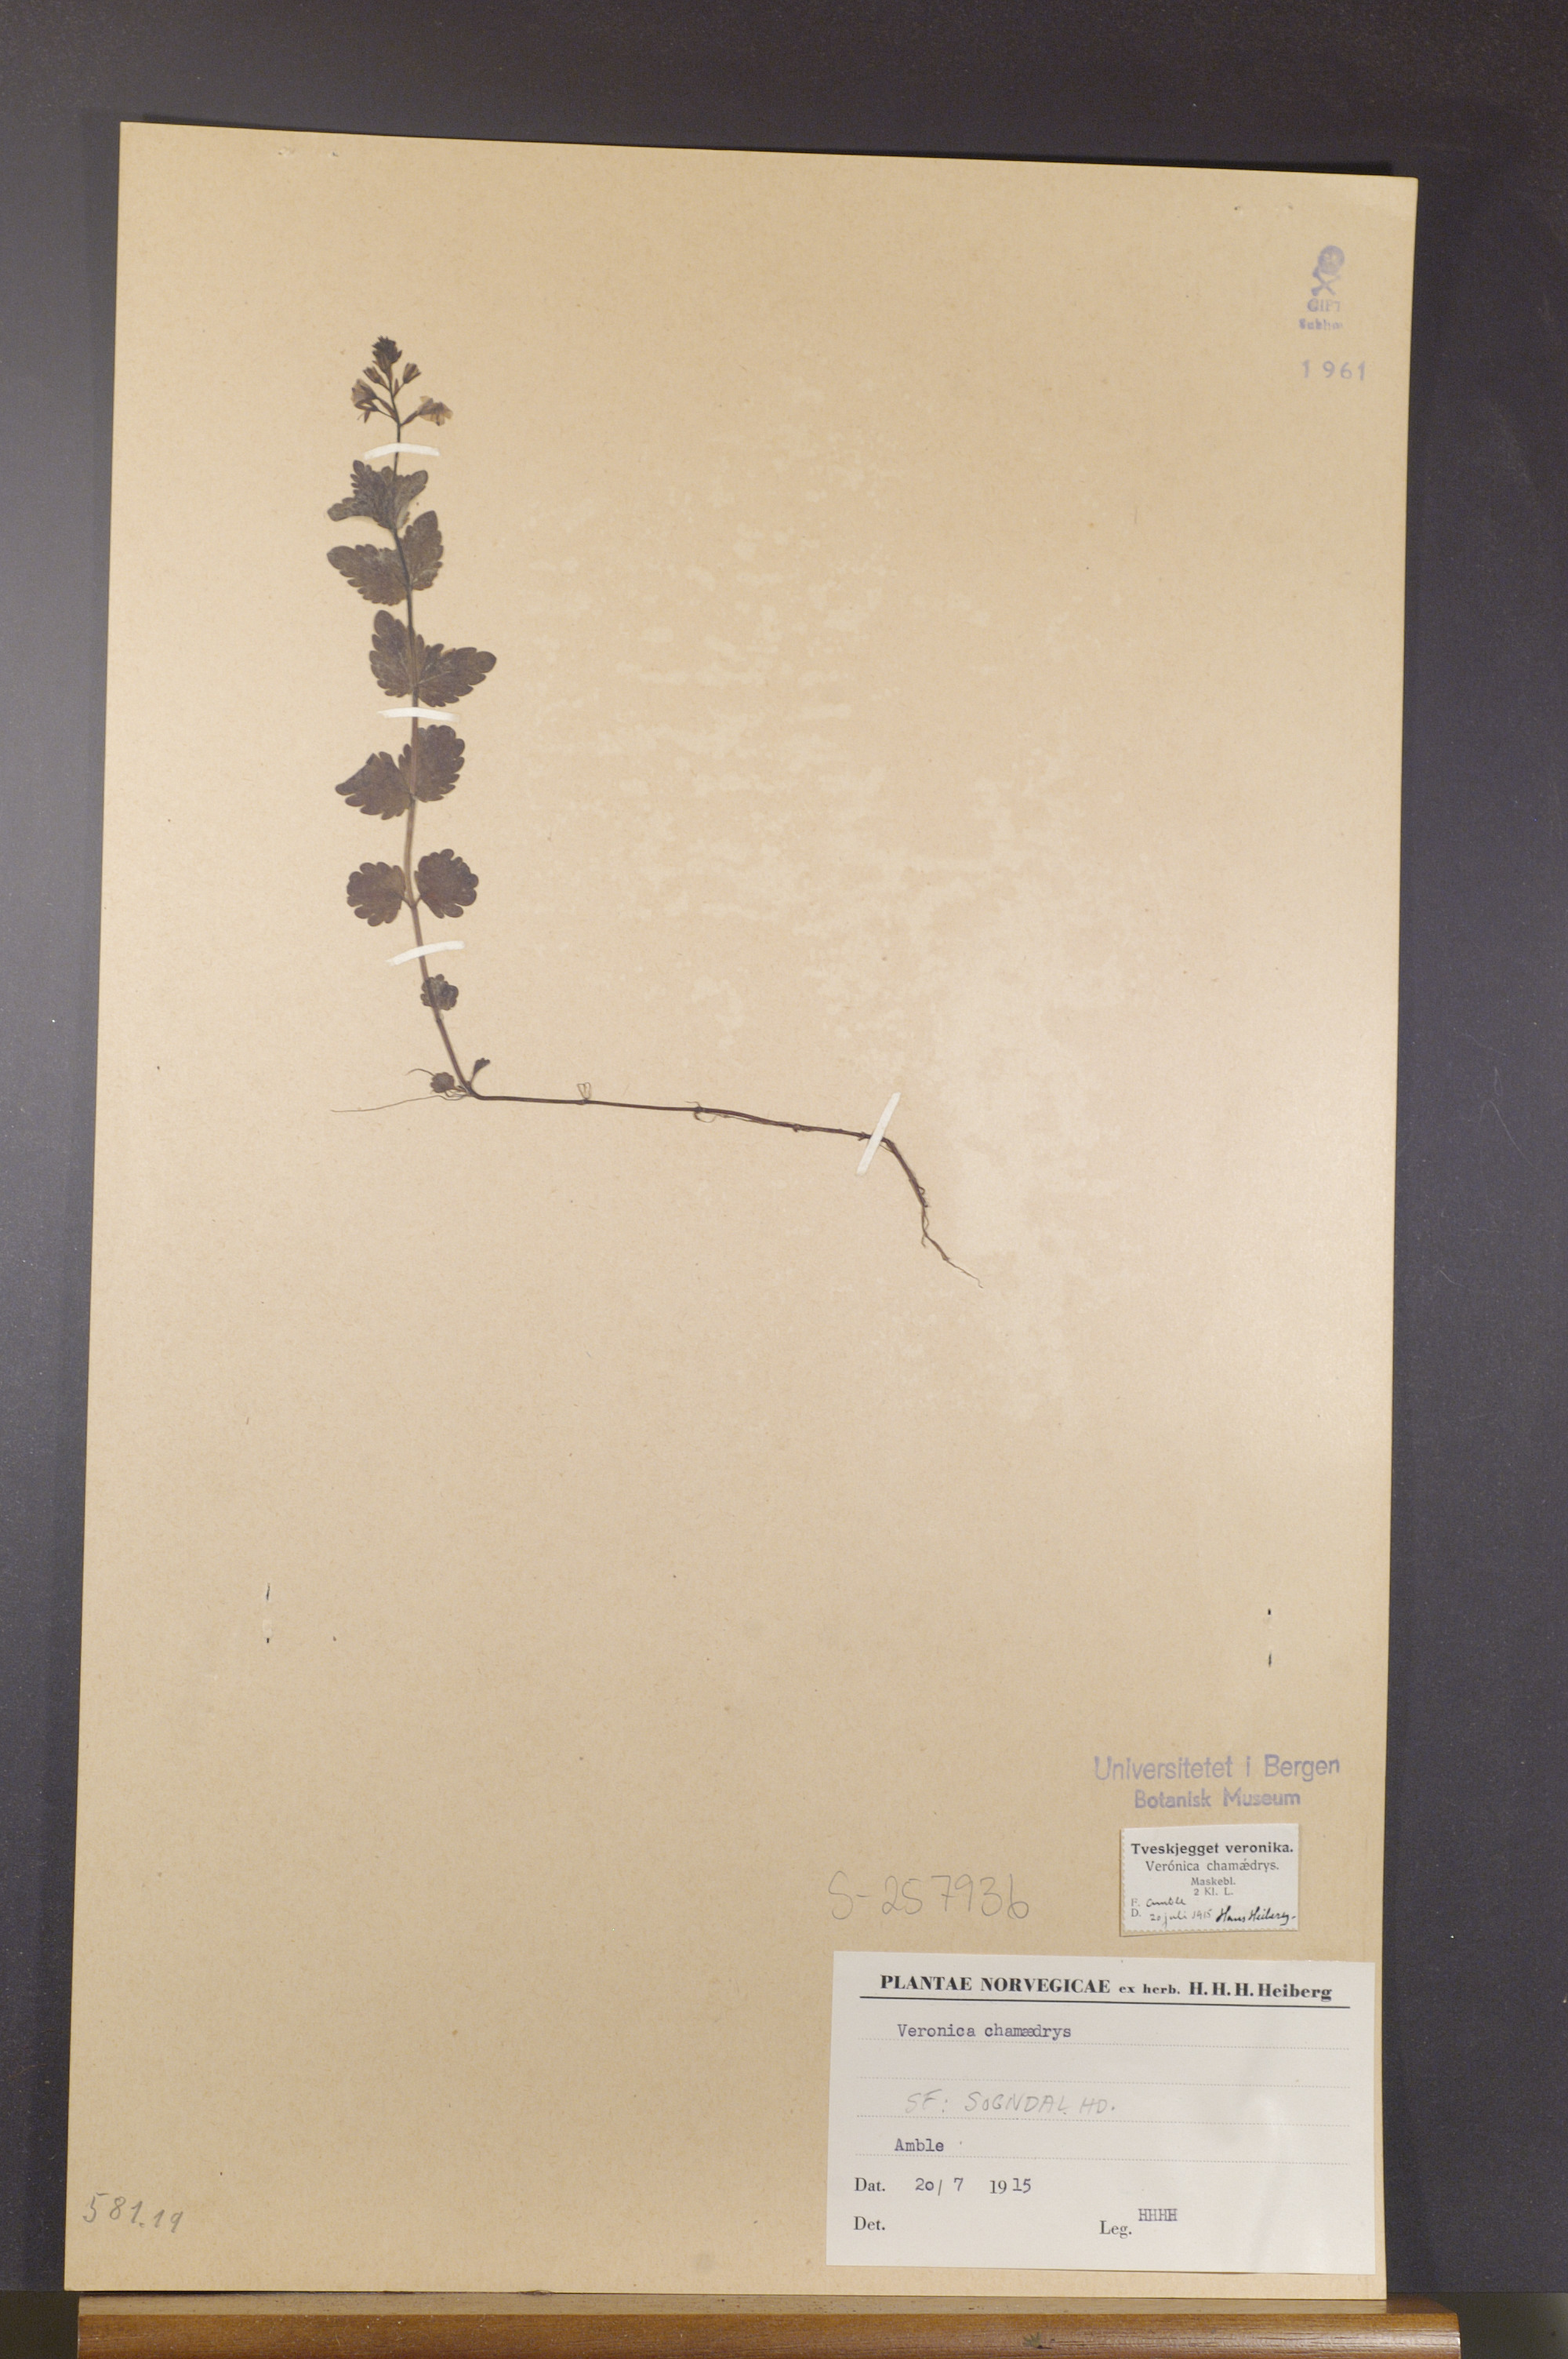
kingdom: Plantae
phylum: Tracheophyta
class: Magnoliopsida
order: Lamiales
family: Plantaginaceae
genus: Veronica
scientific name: Veronica chamaedrys
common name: Germander speedwell
